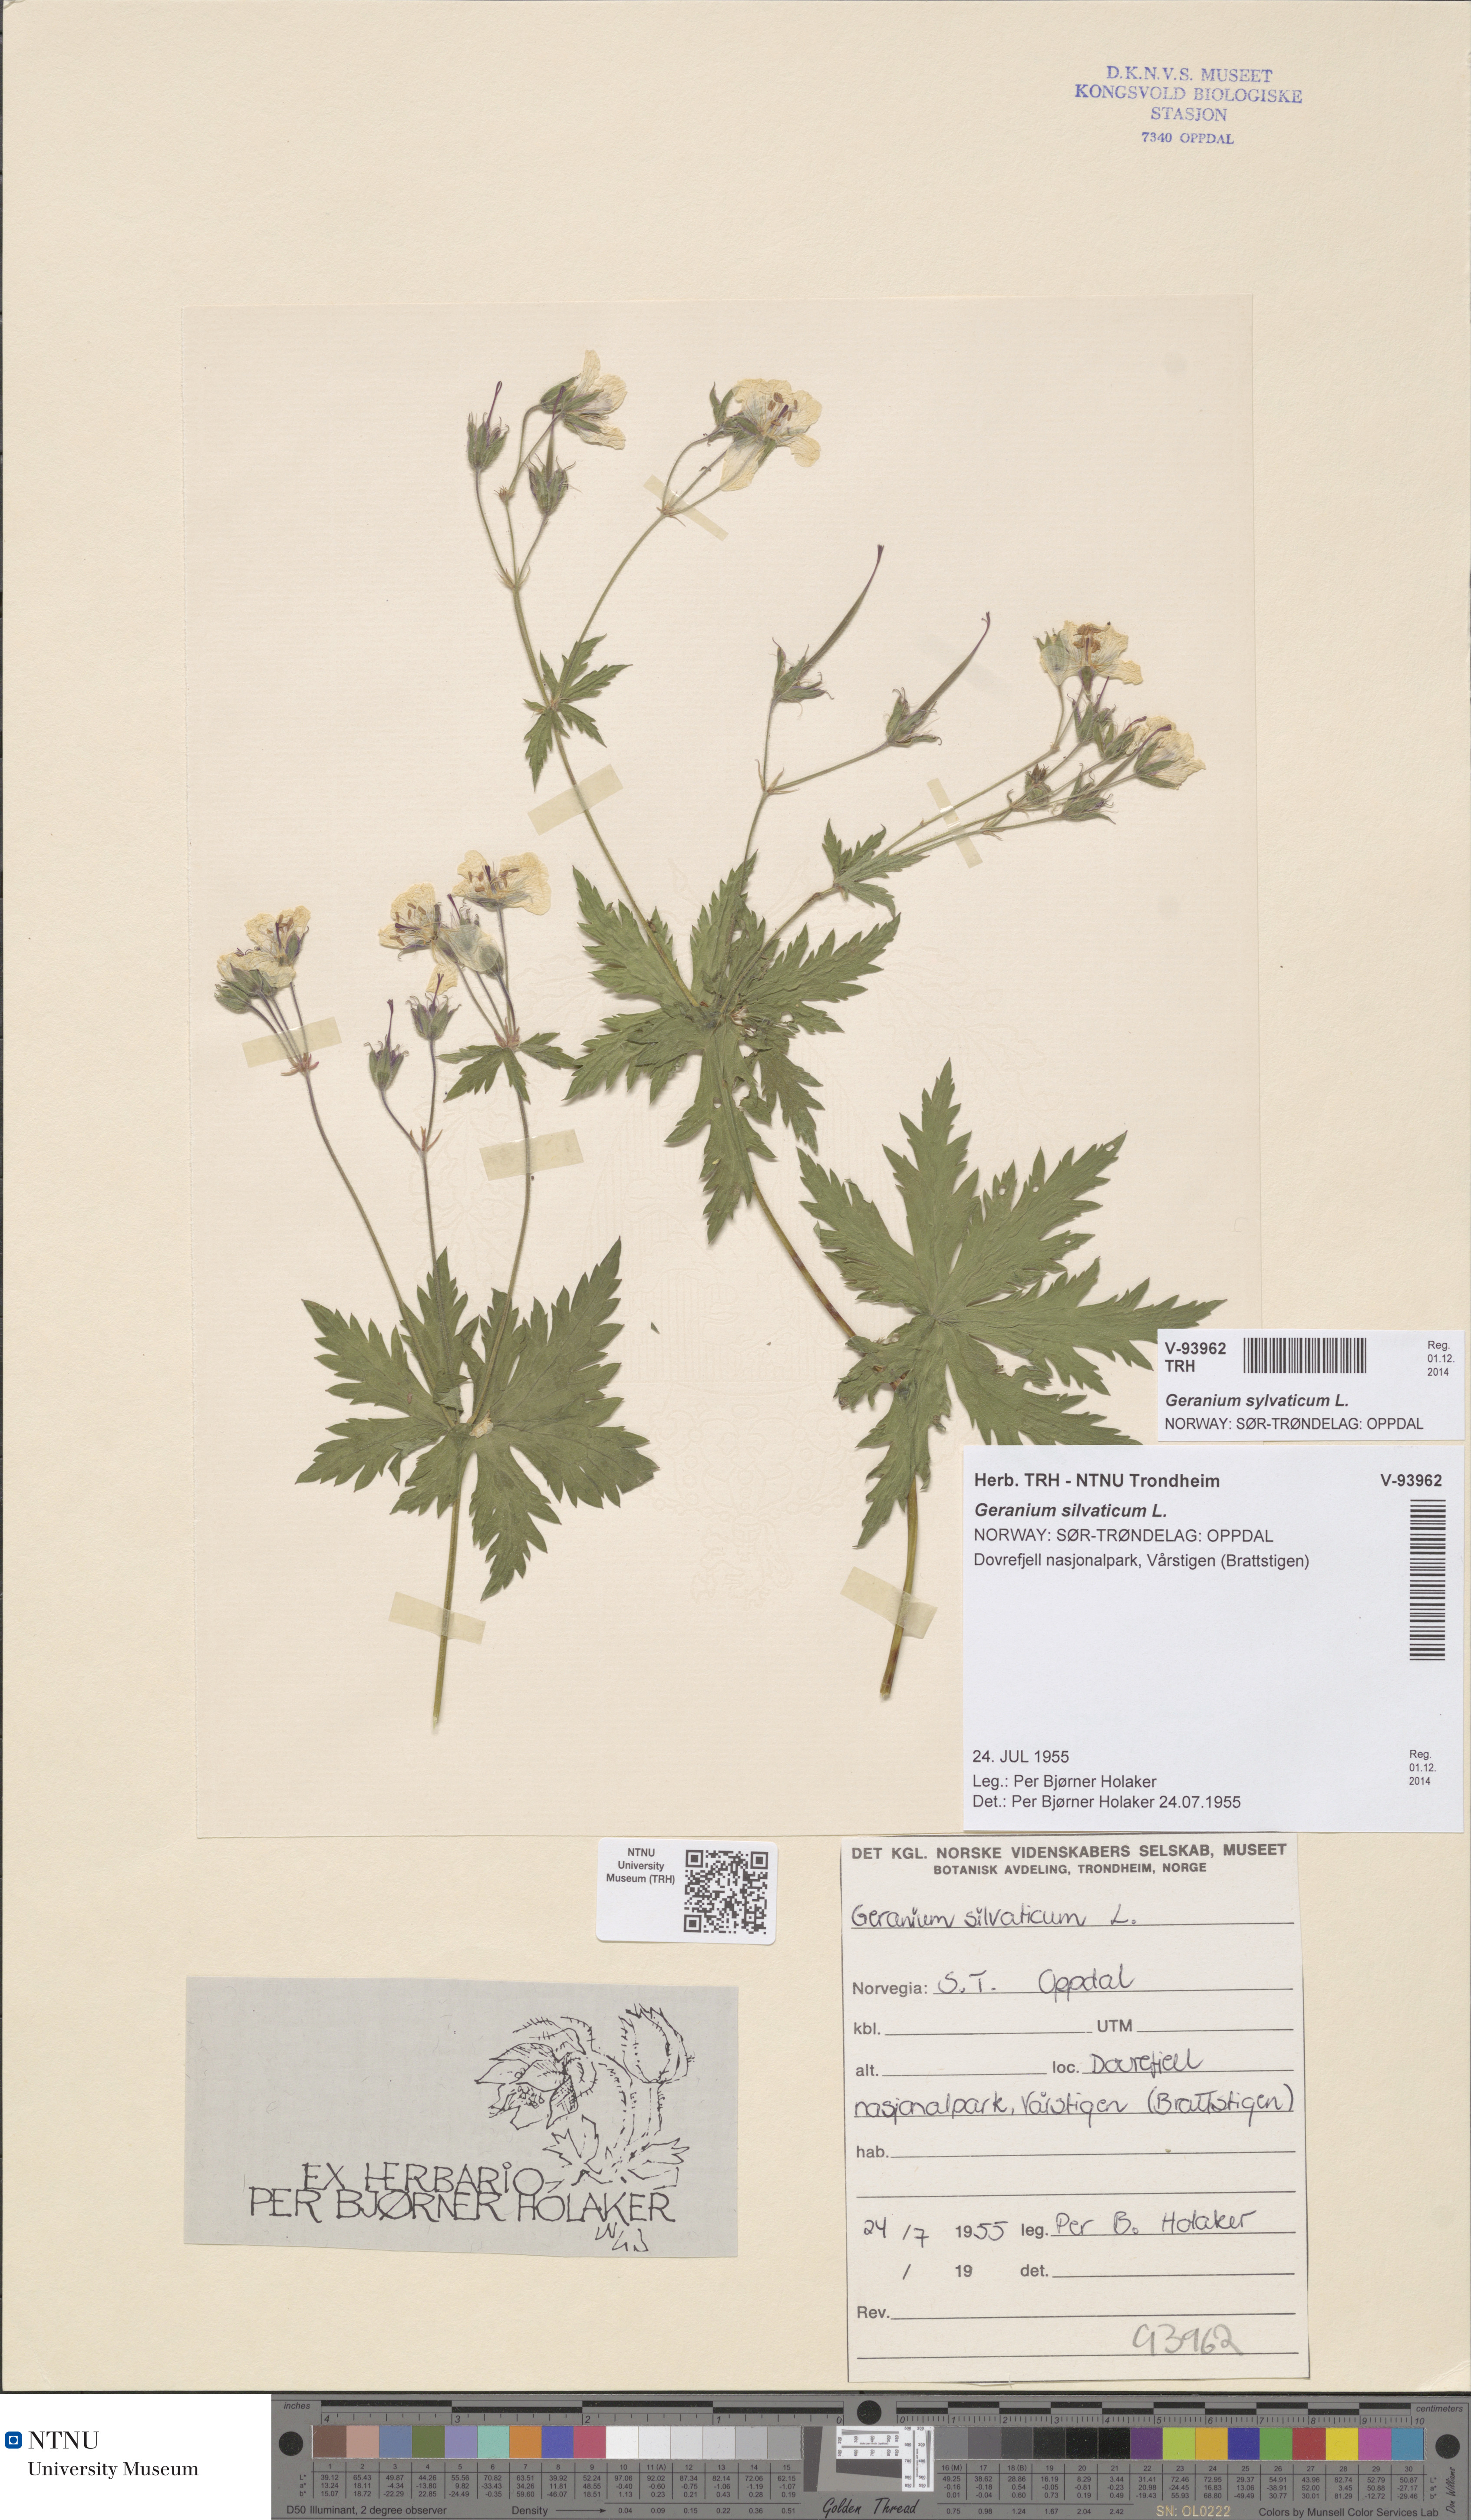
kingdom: Plantae
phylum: Tracheophyta
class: Magnoliopsida
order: Geraniales
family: Geraniaceae
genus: Geranium
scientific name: Geranium sylvaticum
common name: Wood crane's-bill
